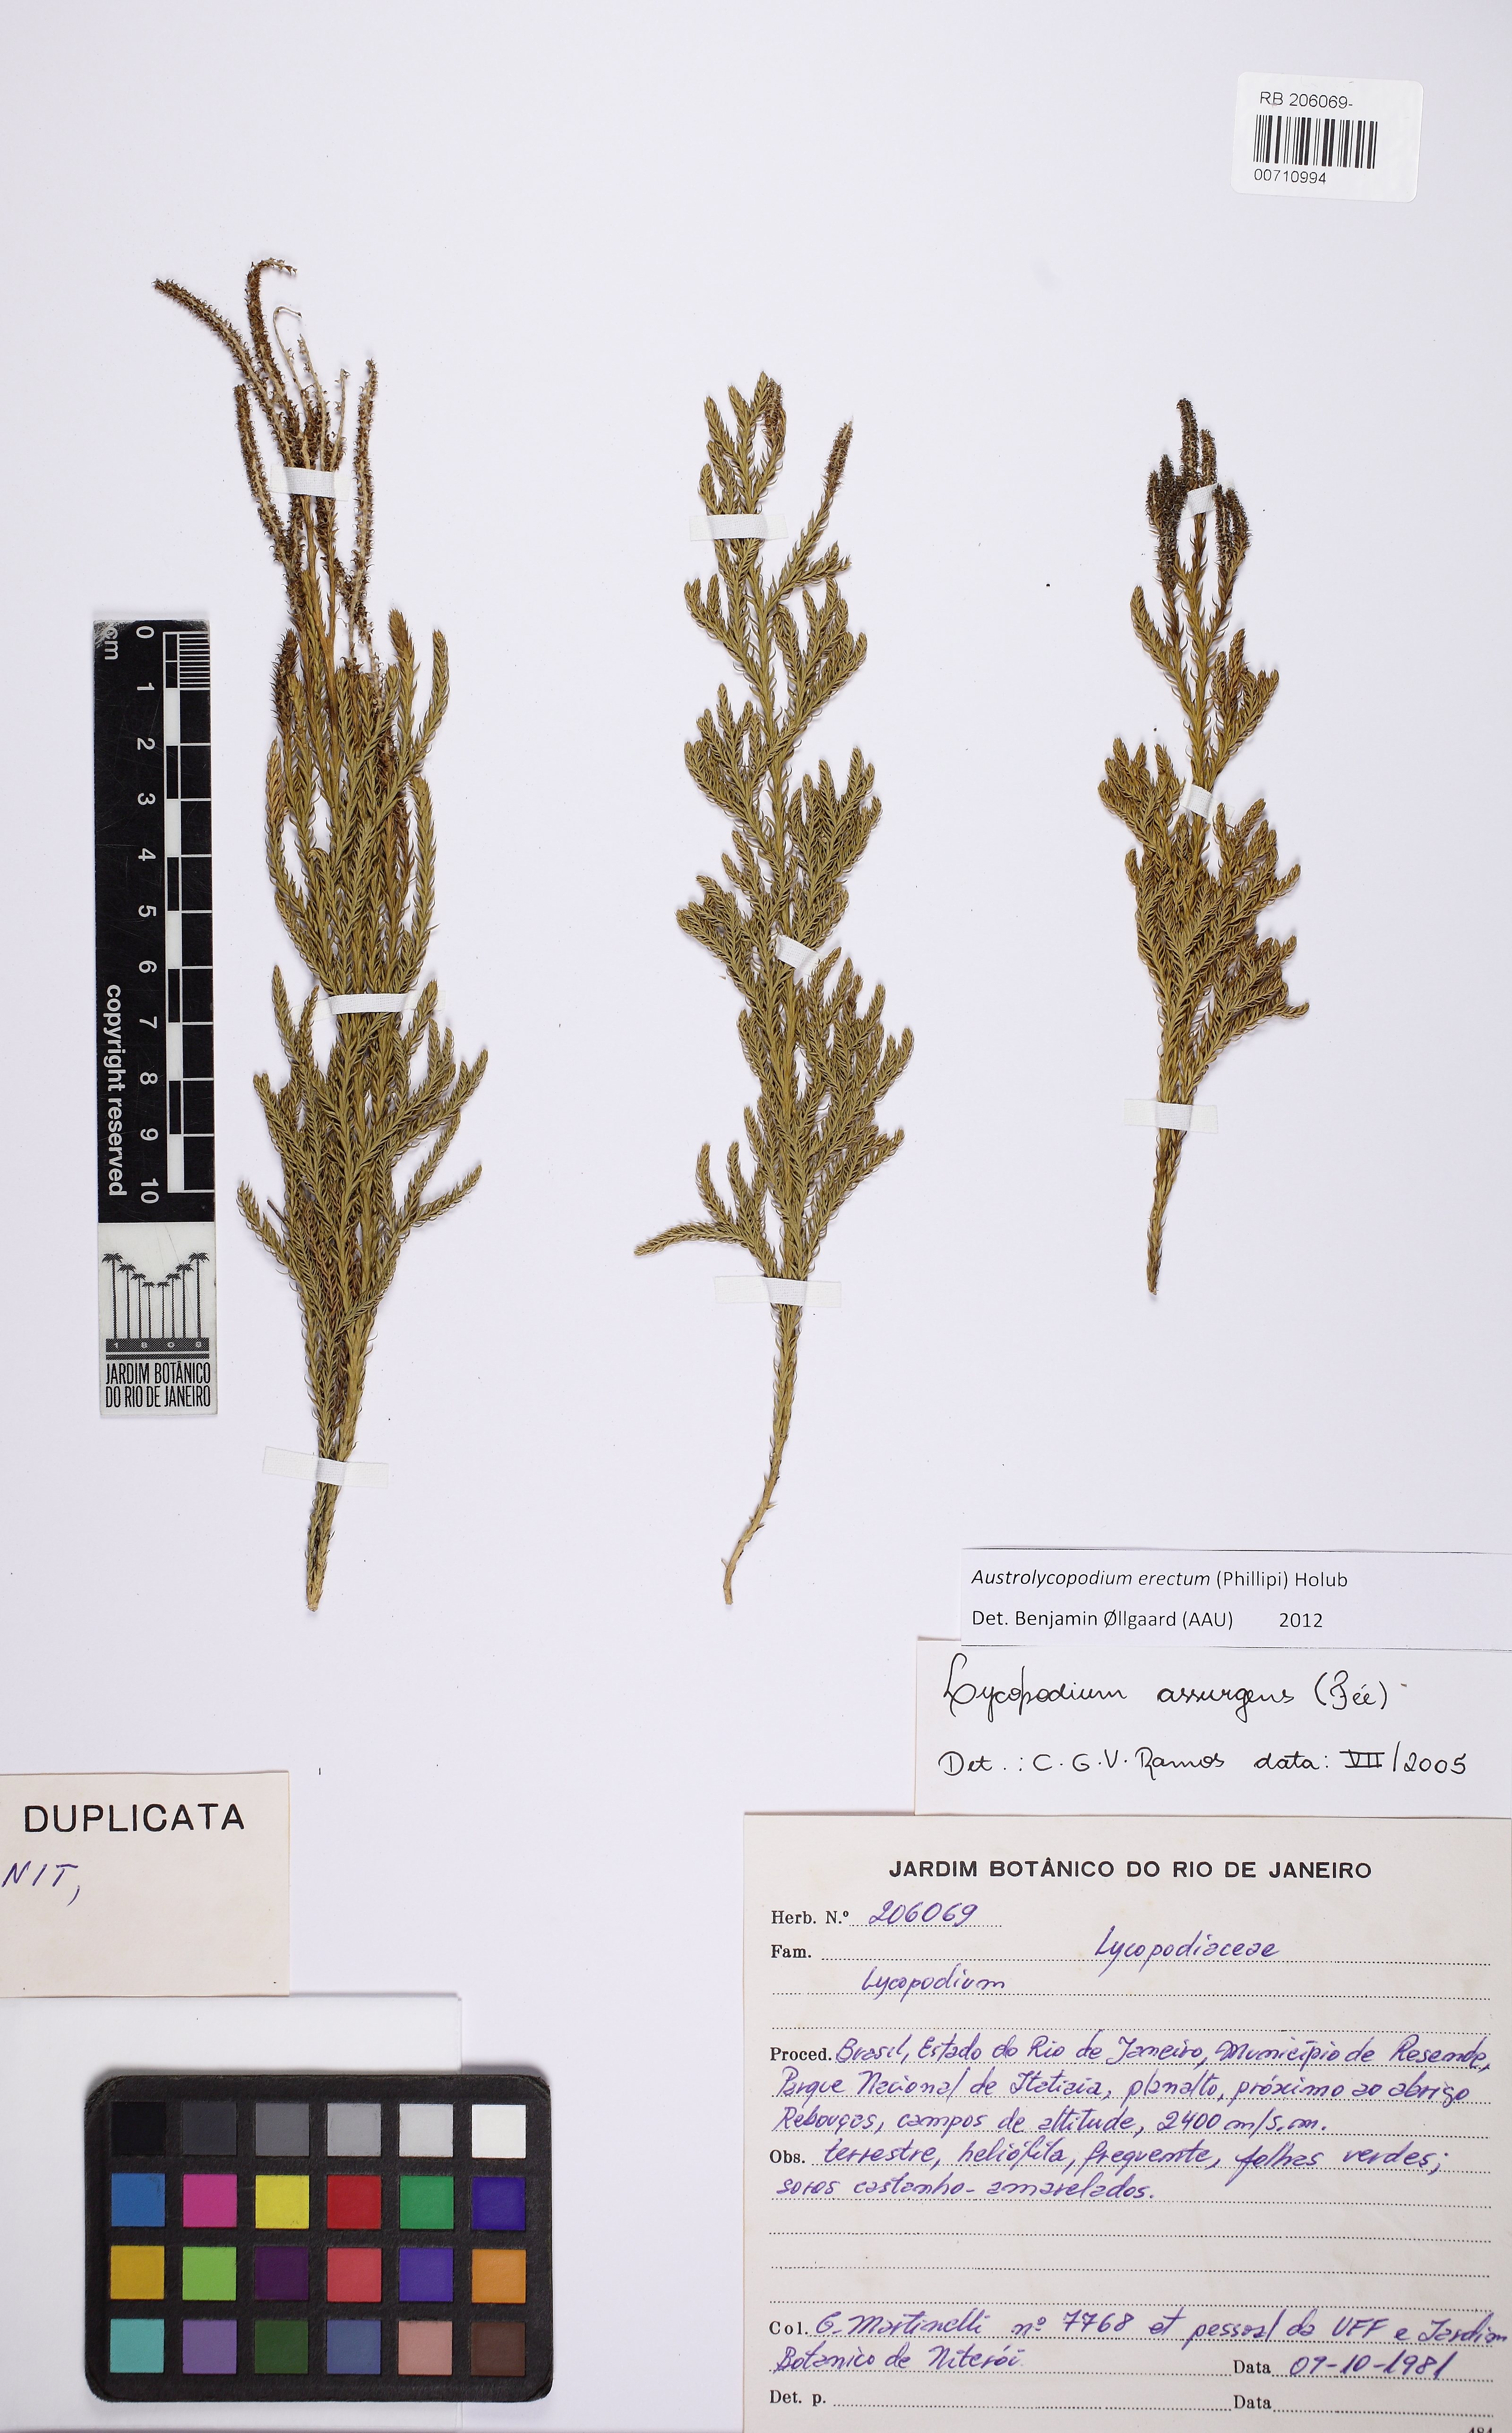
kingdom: Plantae
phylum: Tracheophyta
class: Lycopodiopsida
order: Lycopodiales
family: Lycopodiaceae
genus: Austrolycopodium
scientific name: Austrolycopodium erectum
